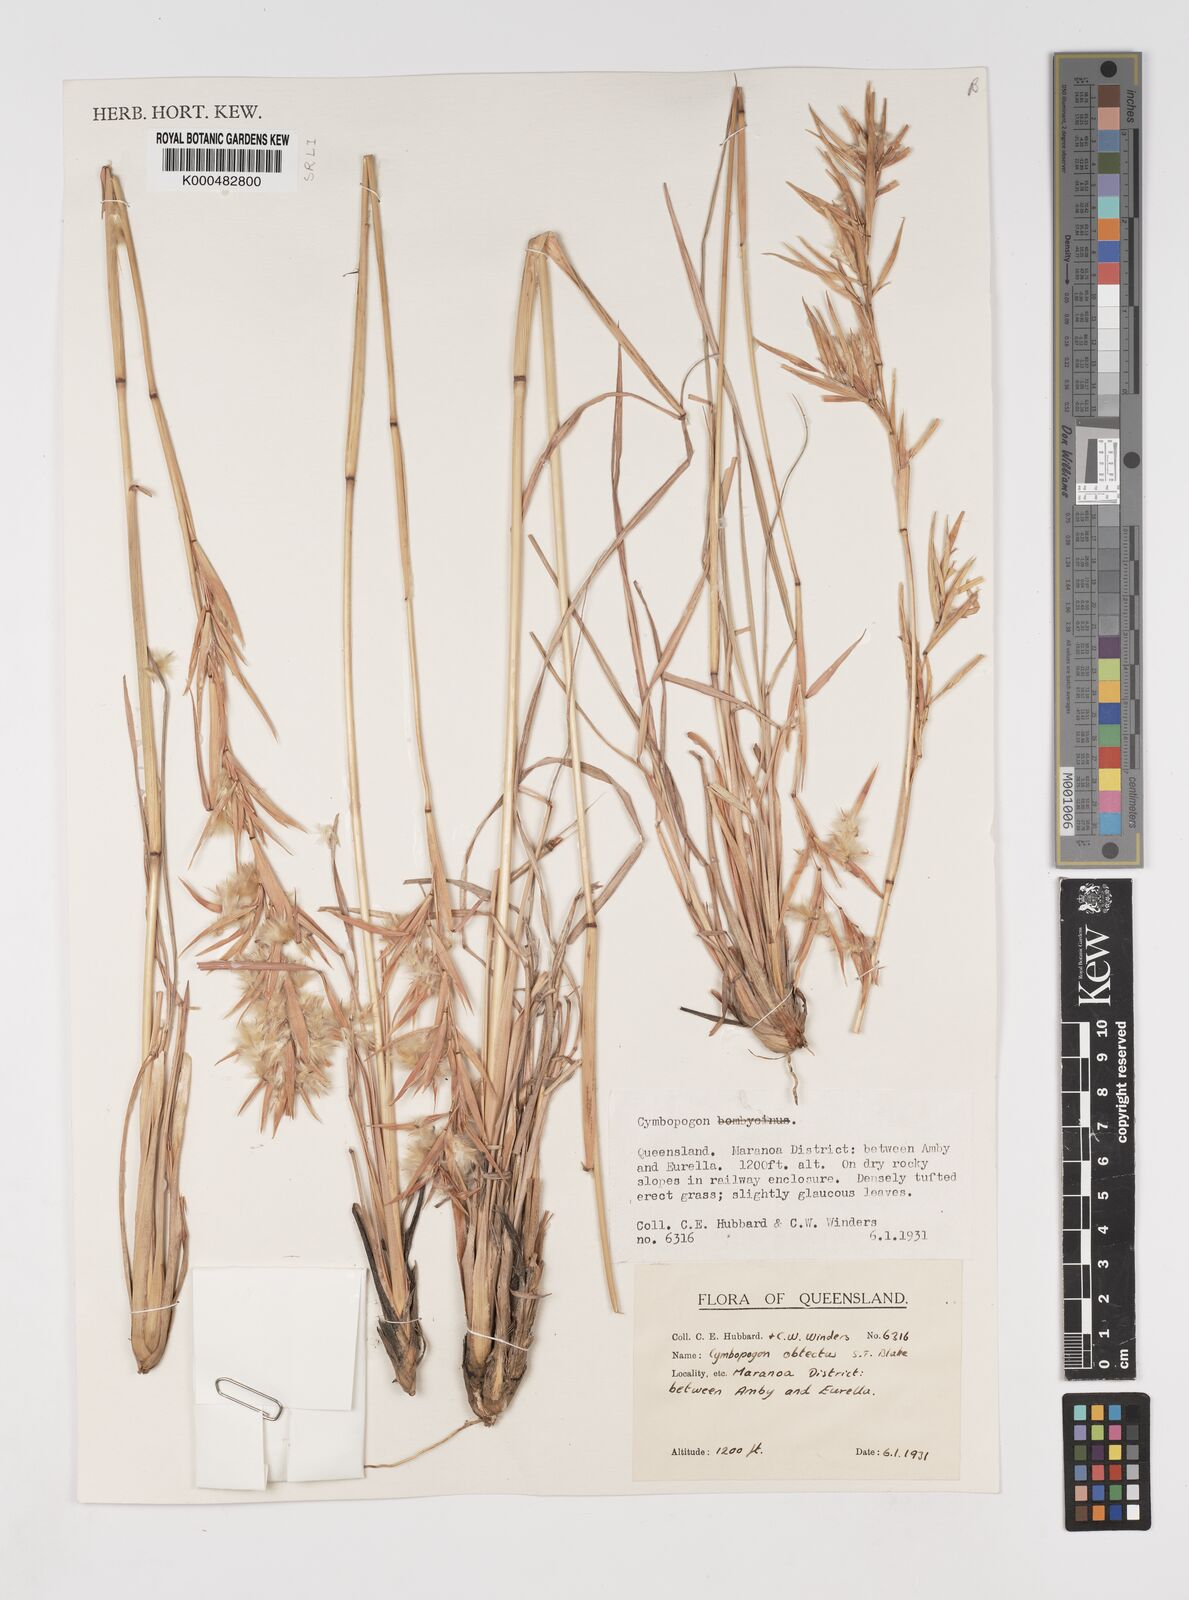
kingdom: Plantae
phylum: Tracheophyta
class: Liliopsida
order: Poales
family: Poaceae
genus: Cymbopogon
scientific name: Cymbopogon obtectus
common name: Silky heads
